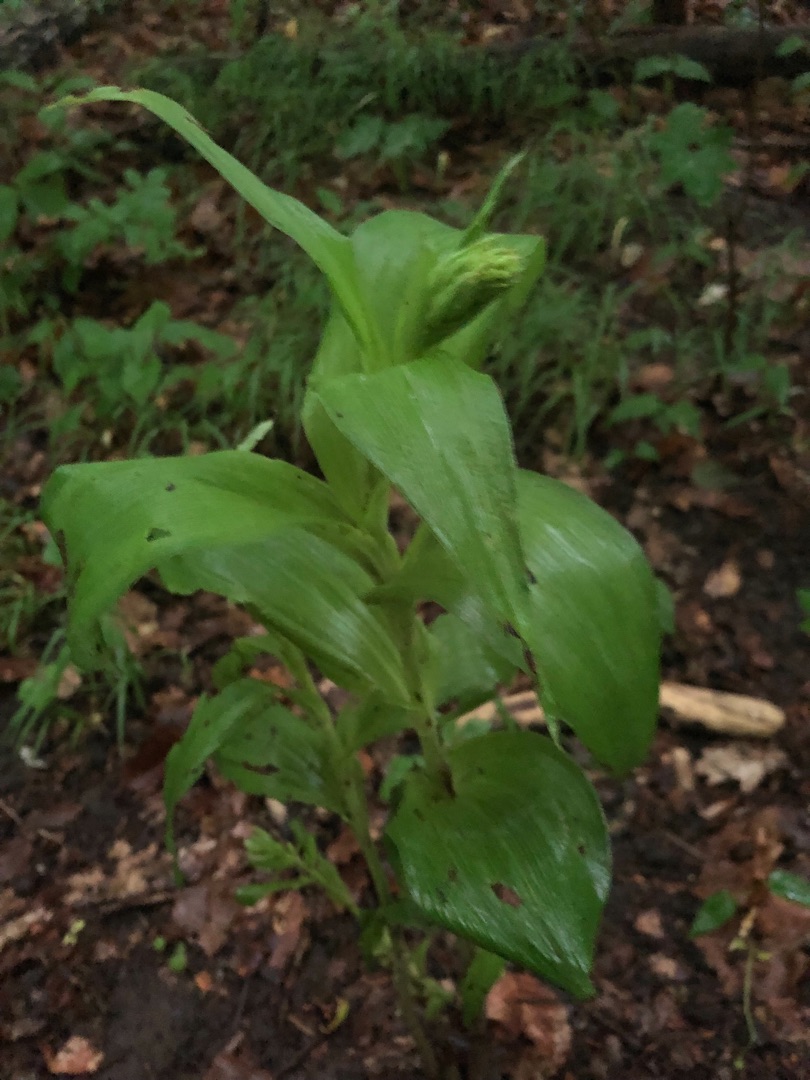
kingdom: Plantae
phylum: Tracheophyta
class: Liliopsida
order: Asparagales
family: Orchidaceae
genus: Epipactis
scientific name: Epipactis helleborine
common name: Skov-hullæbe
